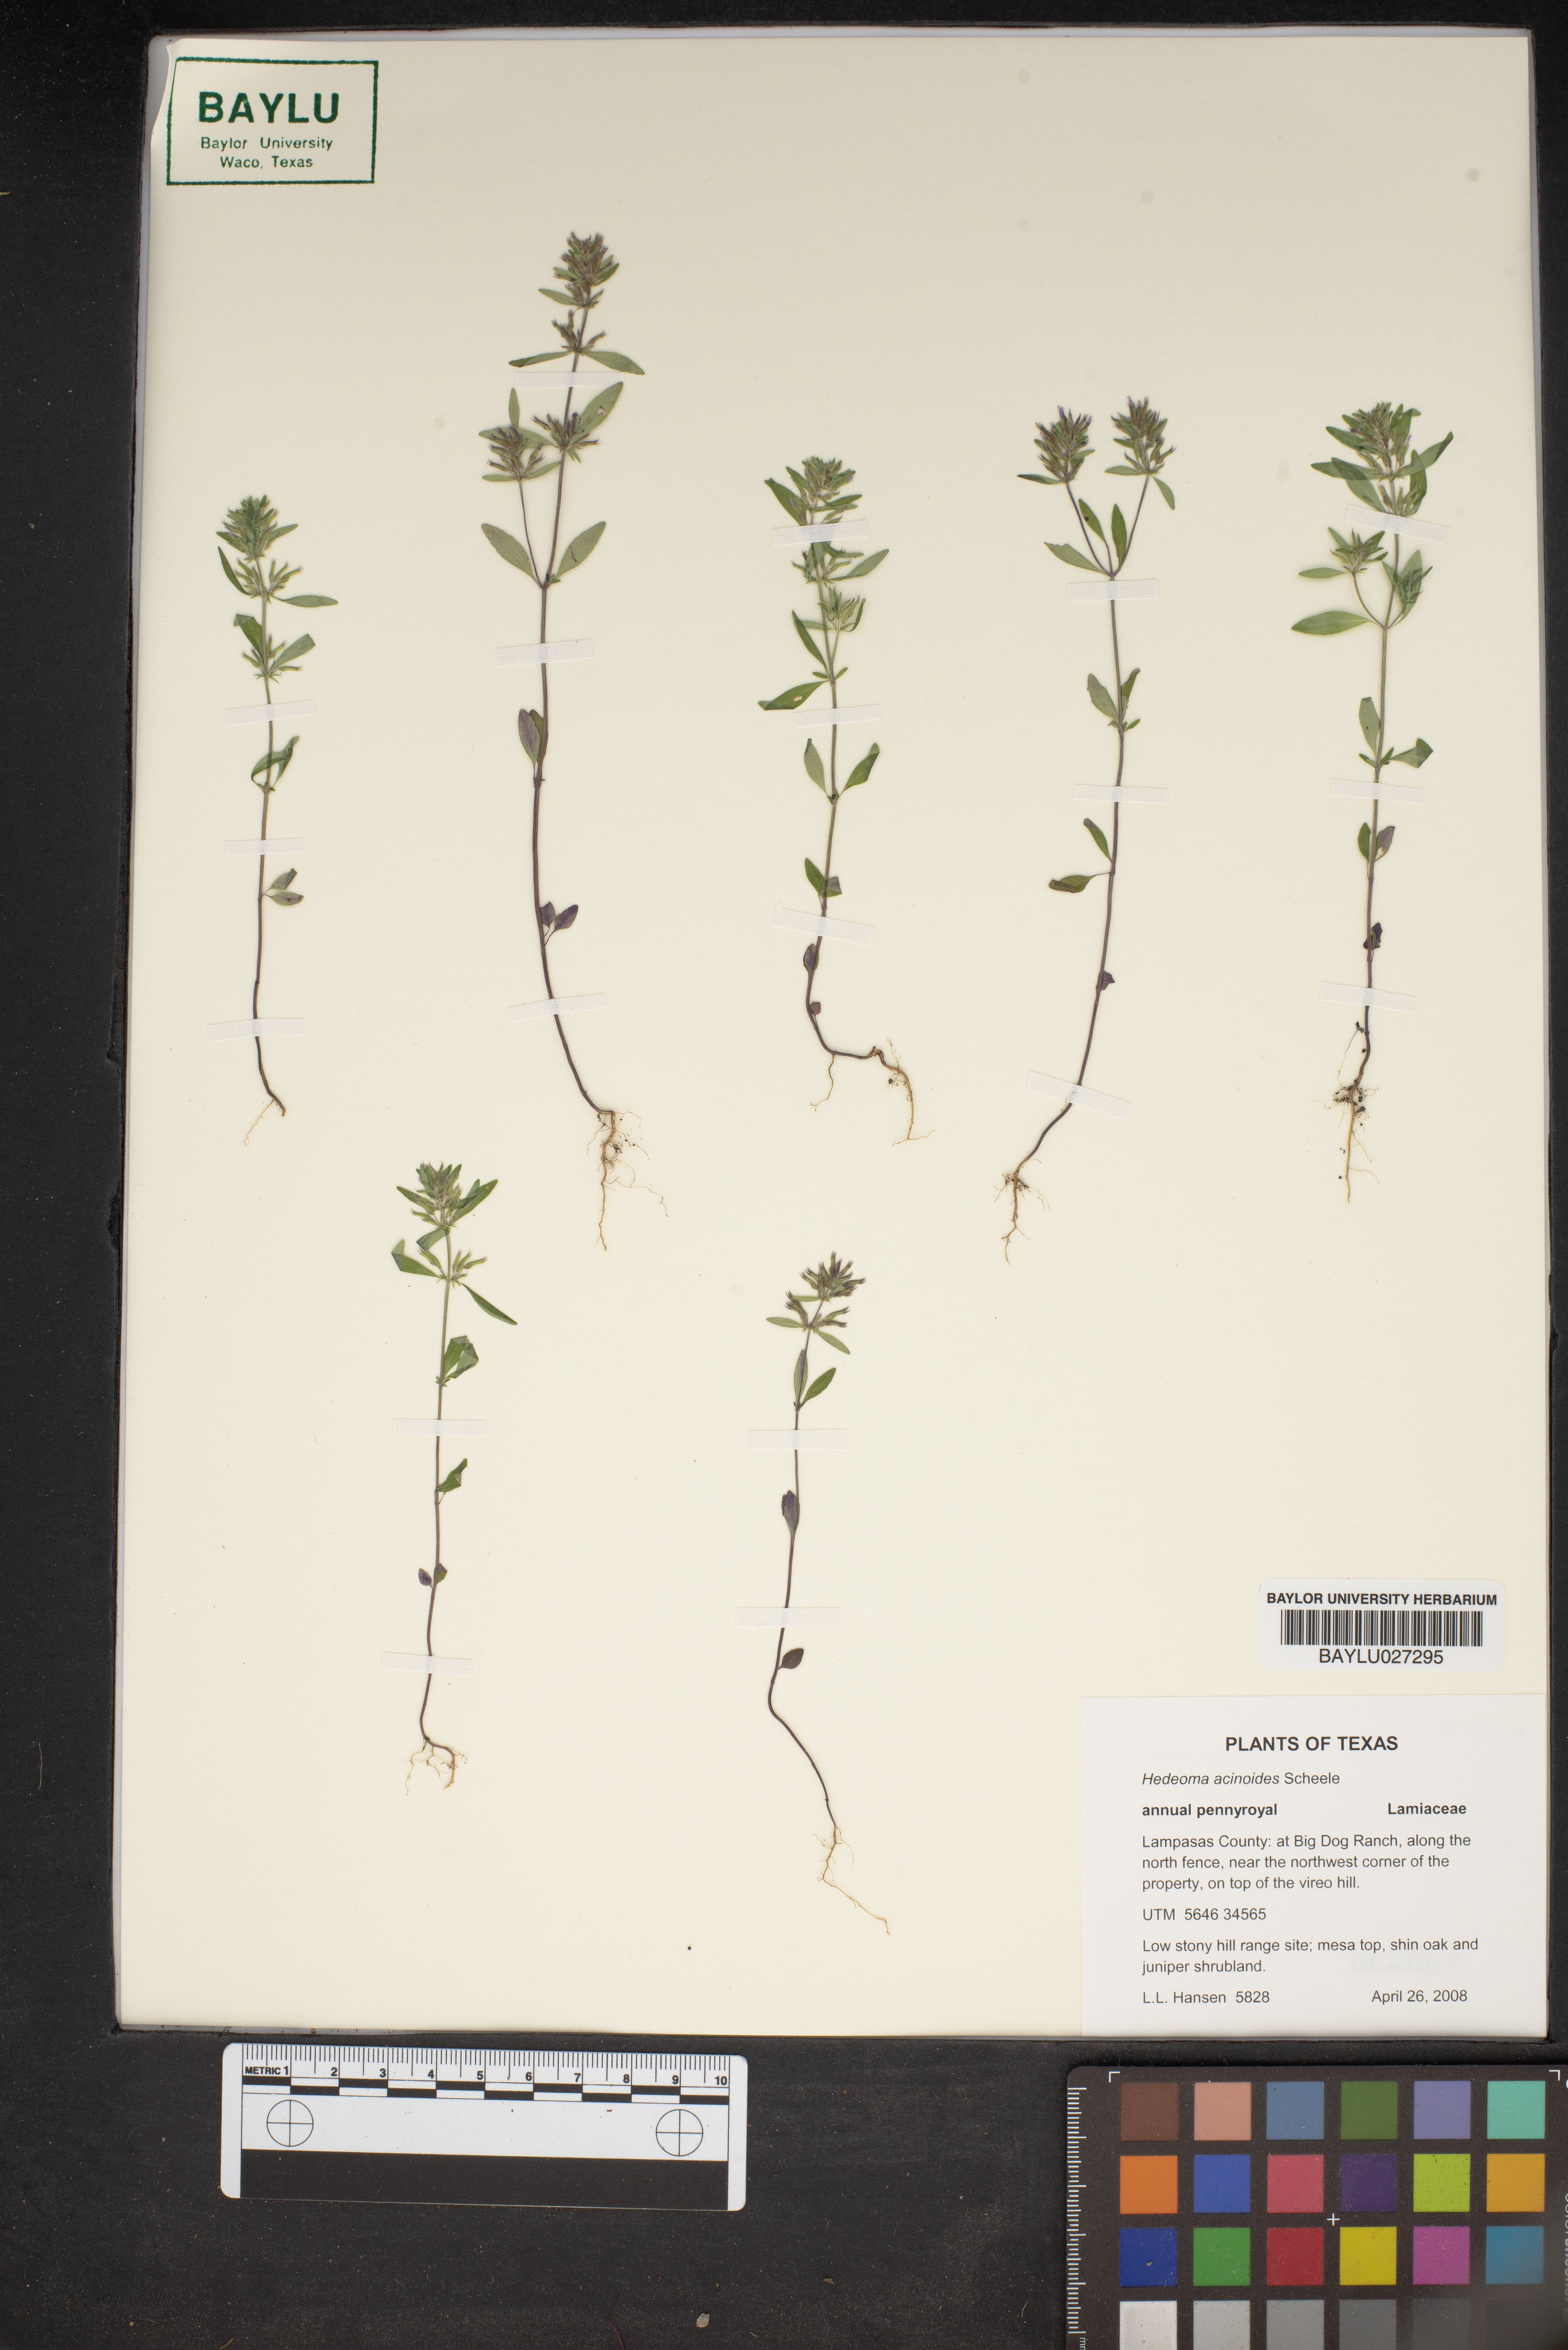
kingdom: Plantae
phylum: Tracheophyta
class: Magnoliopsida
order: Lamiales
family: Lamiaceae
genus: Hedeoma
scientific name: Hedeoma acinoides
